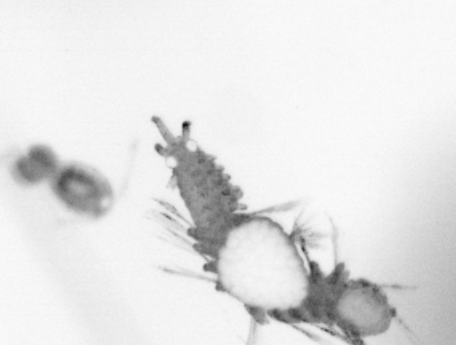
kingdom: Animalia
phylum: Annelida
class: Polychaeta
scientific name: Polychaeta
